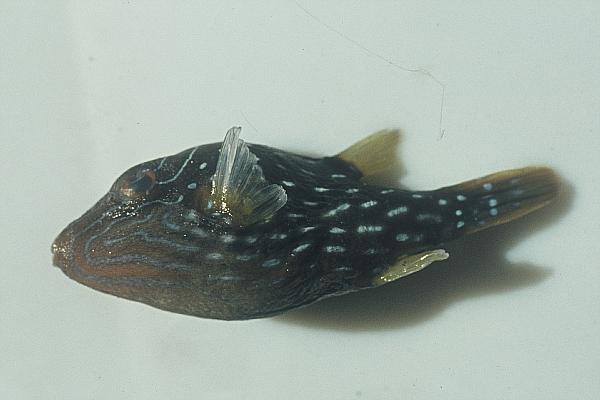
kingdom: Animalia
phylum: Chordata
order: Tetraodontiformes
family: Tetraodontidae
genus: Canthigaster
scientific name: Canthigaster amboinensis
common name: Ambon pufferfish
